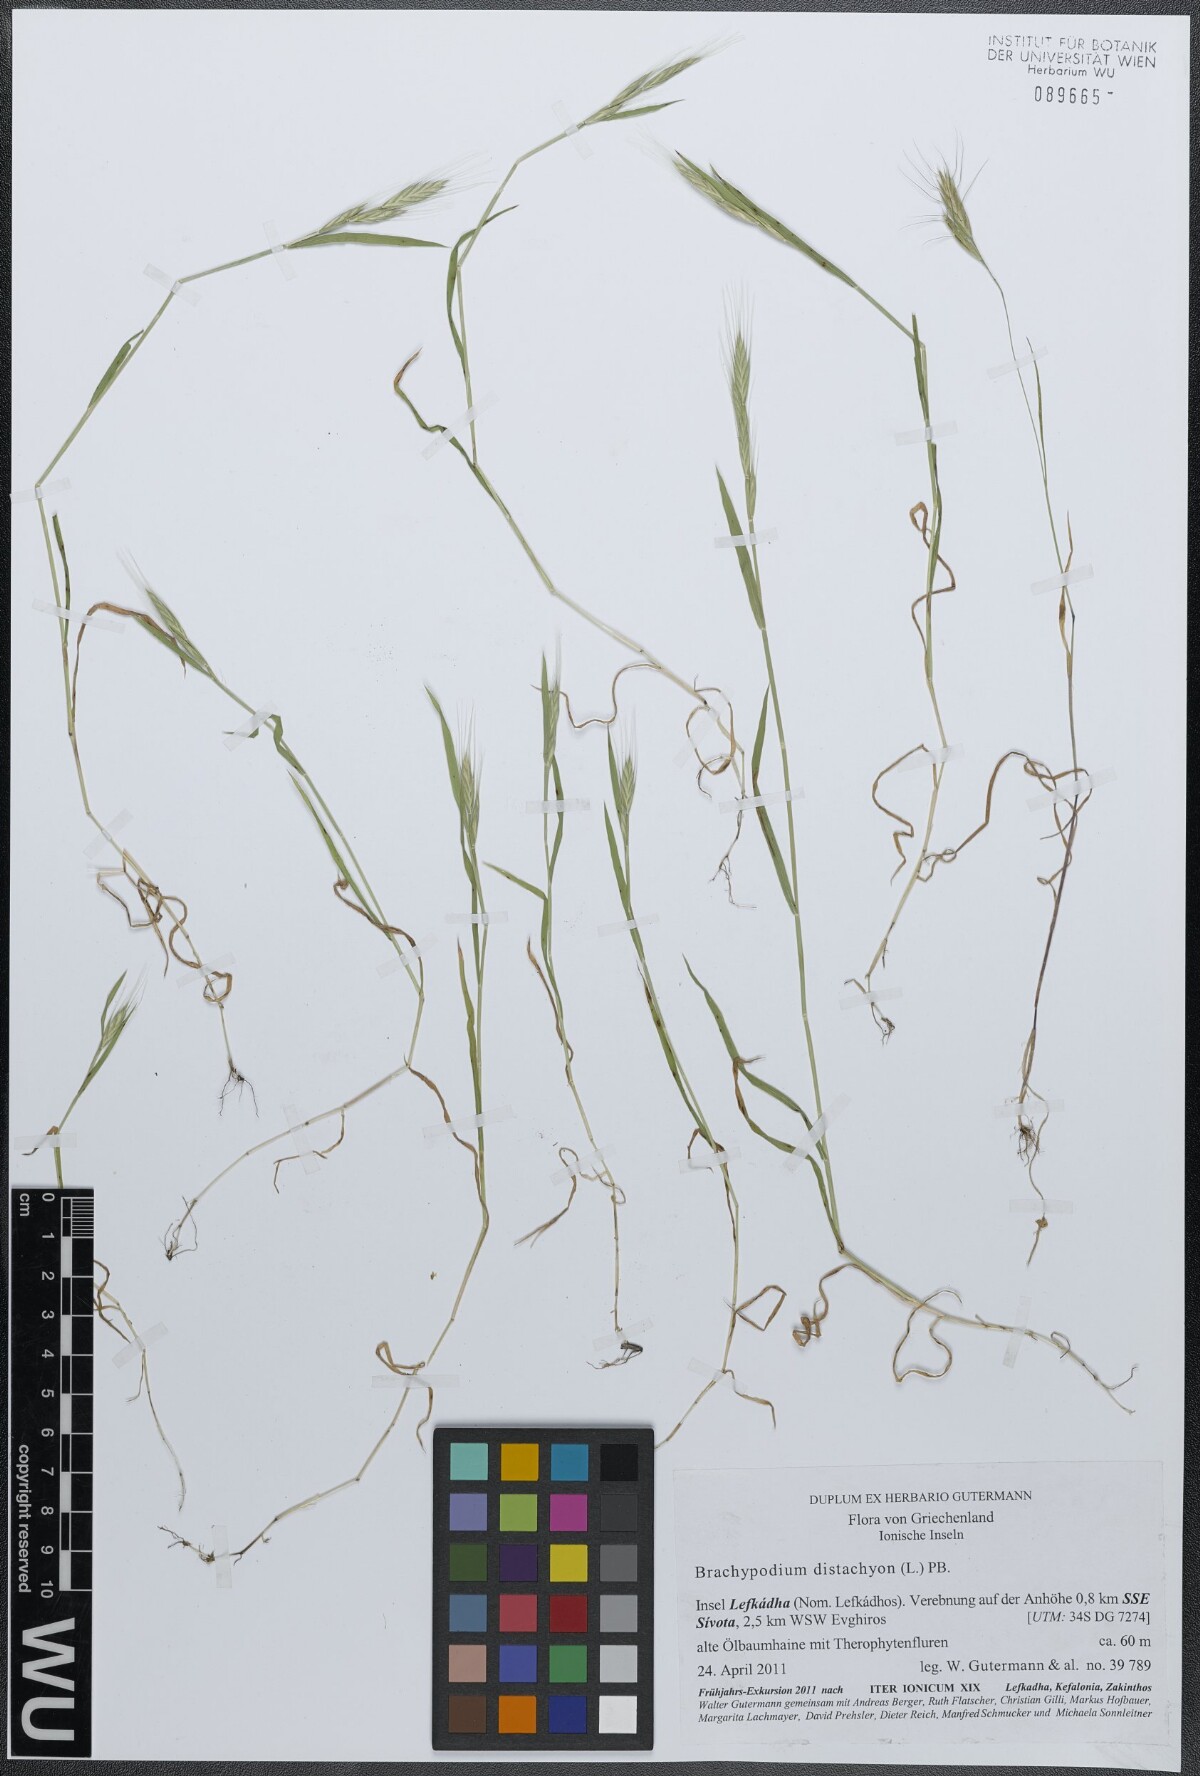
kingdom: Plantae
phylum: Tracheophyta
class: Liliopsida
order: Poales
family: Poaceae
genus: Brachypodium
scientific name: Brachypodium distachyon
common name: Stiff brome
